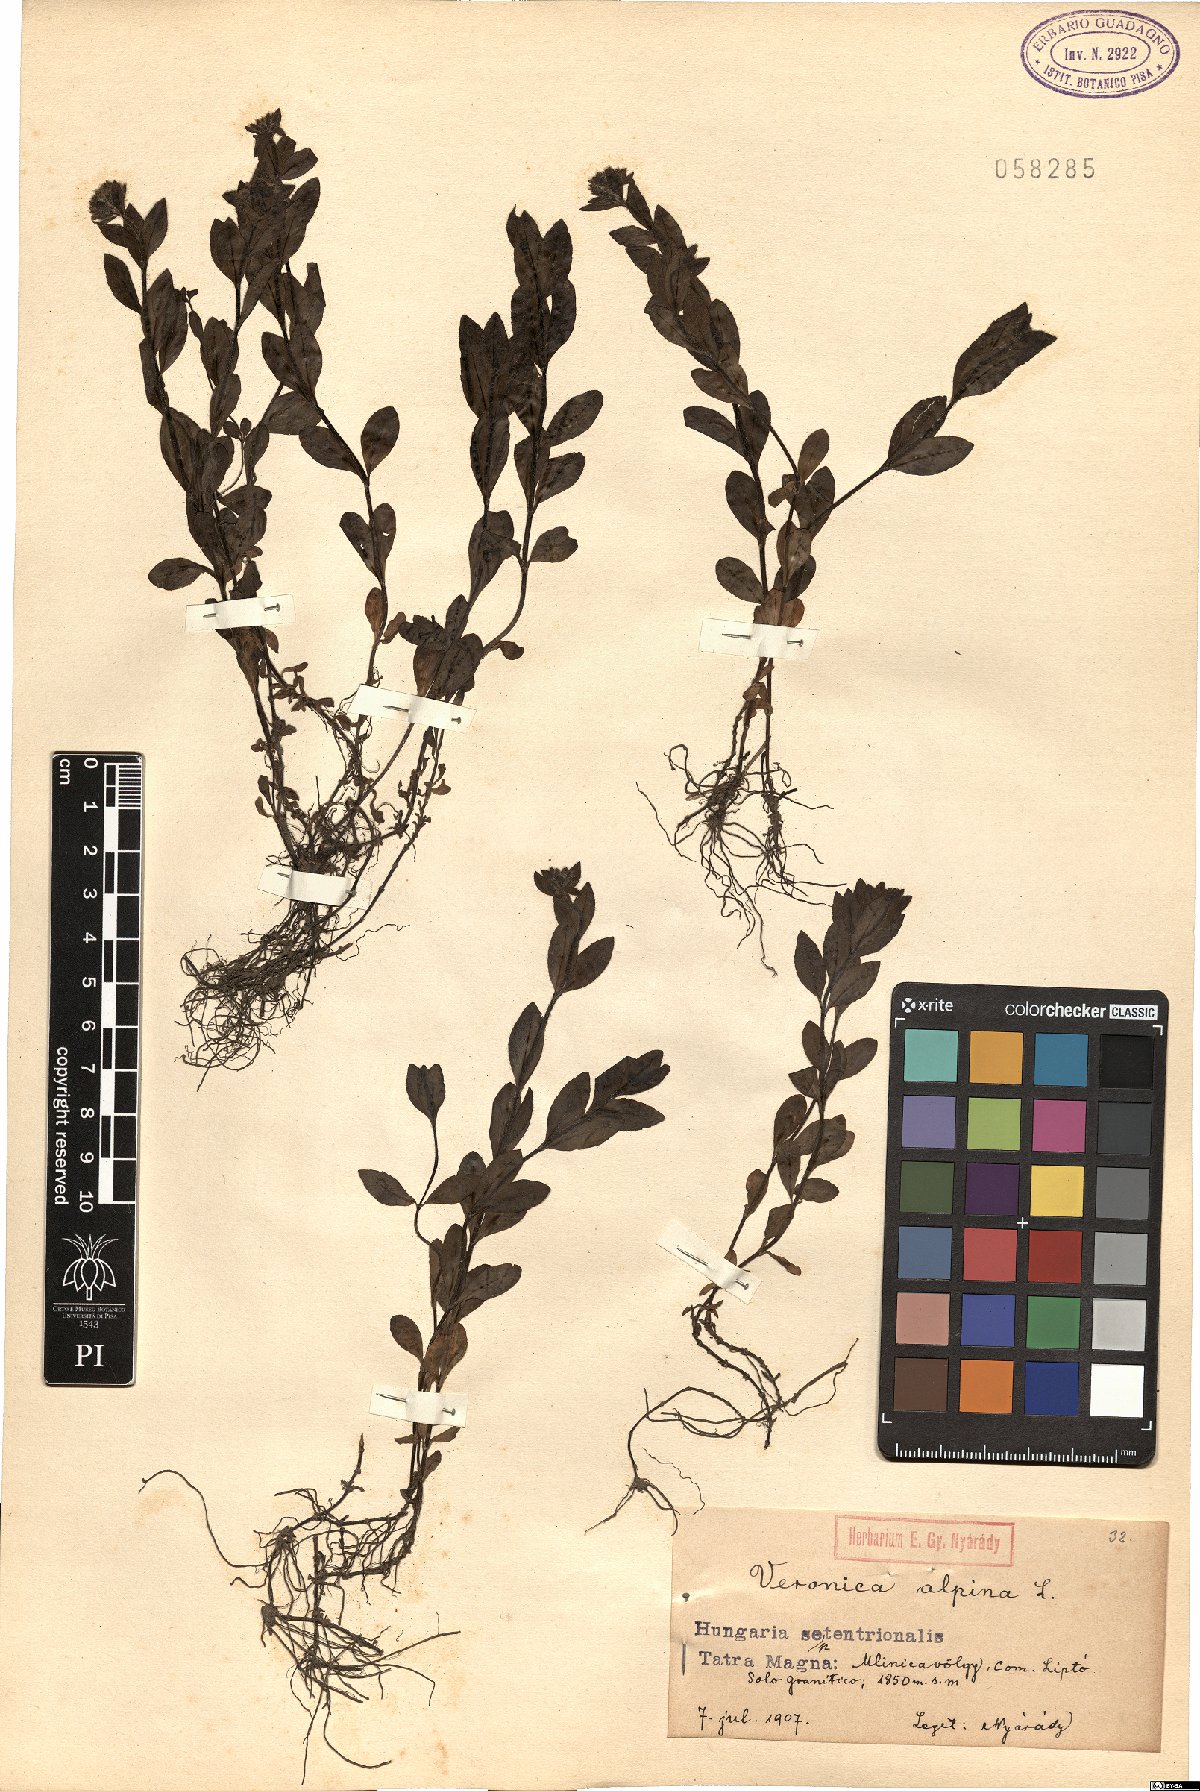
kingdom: Plantae
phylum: Tracheophyta
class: Magnoliopsida
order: Lamiales
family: Plantaginaceae
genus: Veronica
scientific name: Veronica alpina
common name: Alpine speedwell
